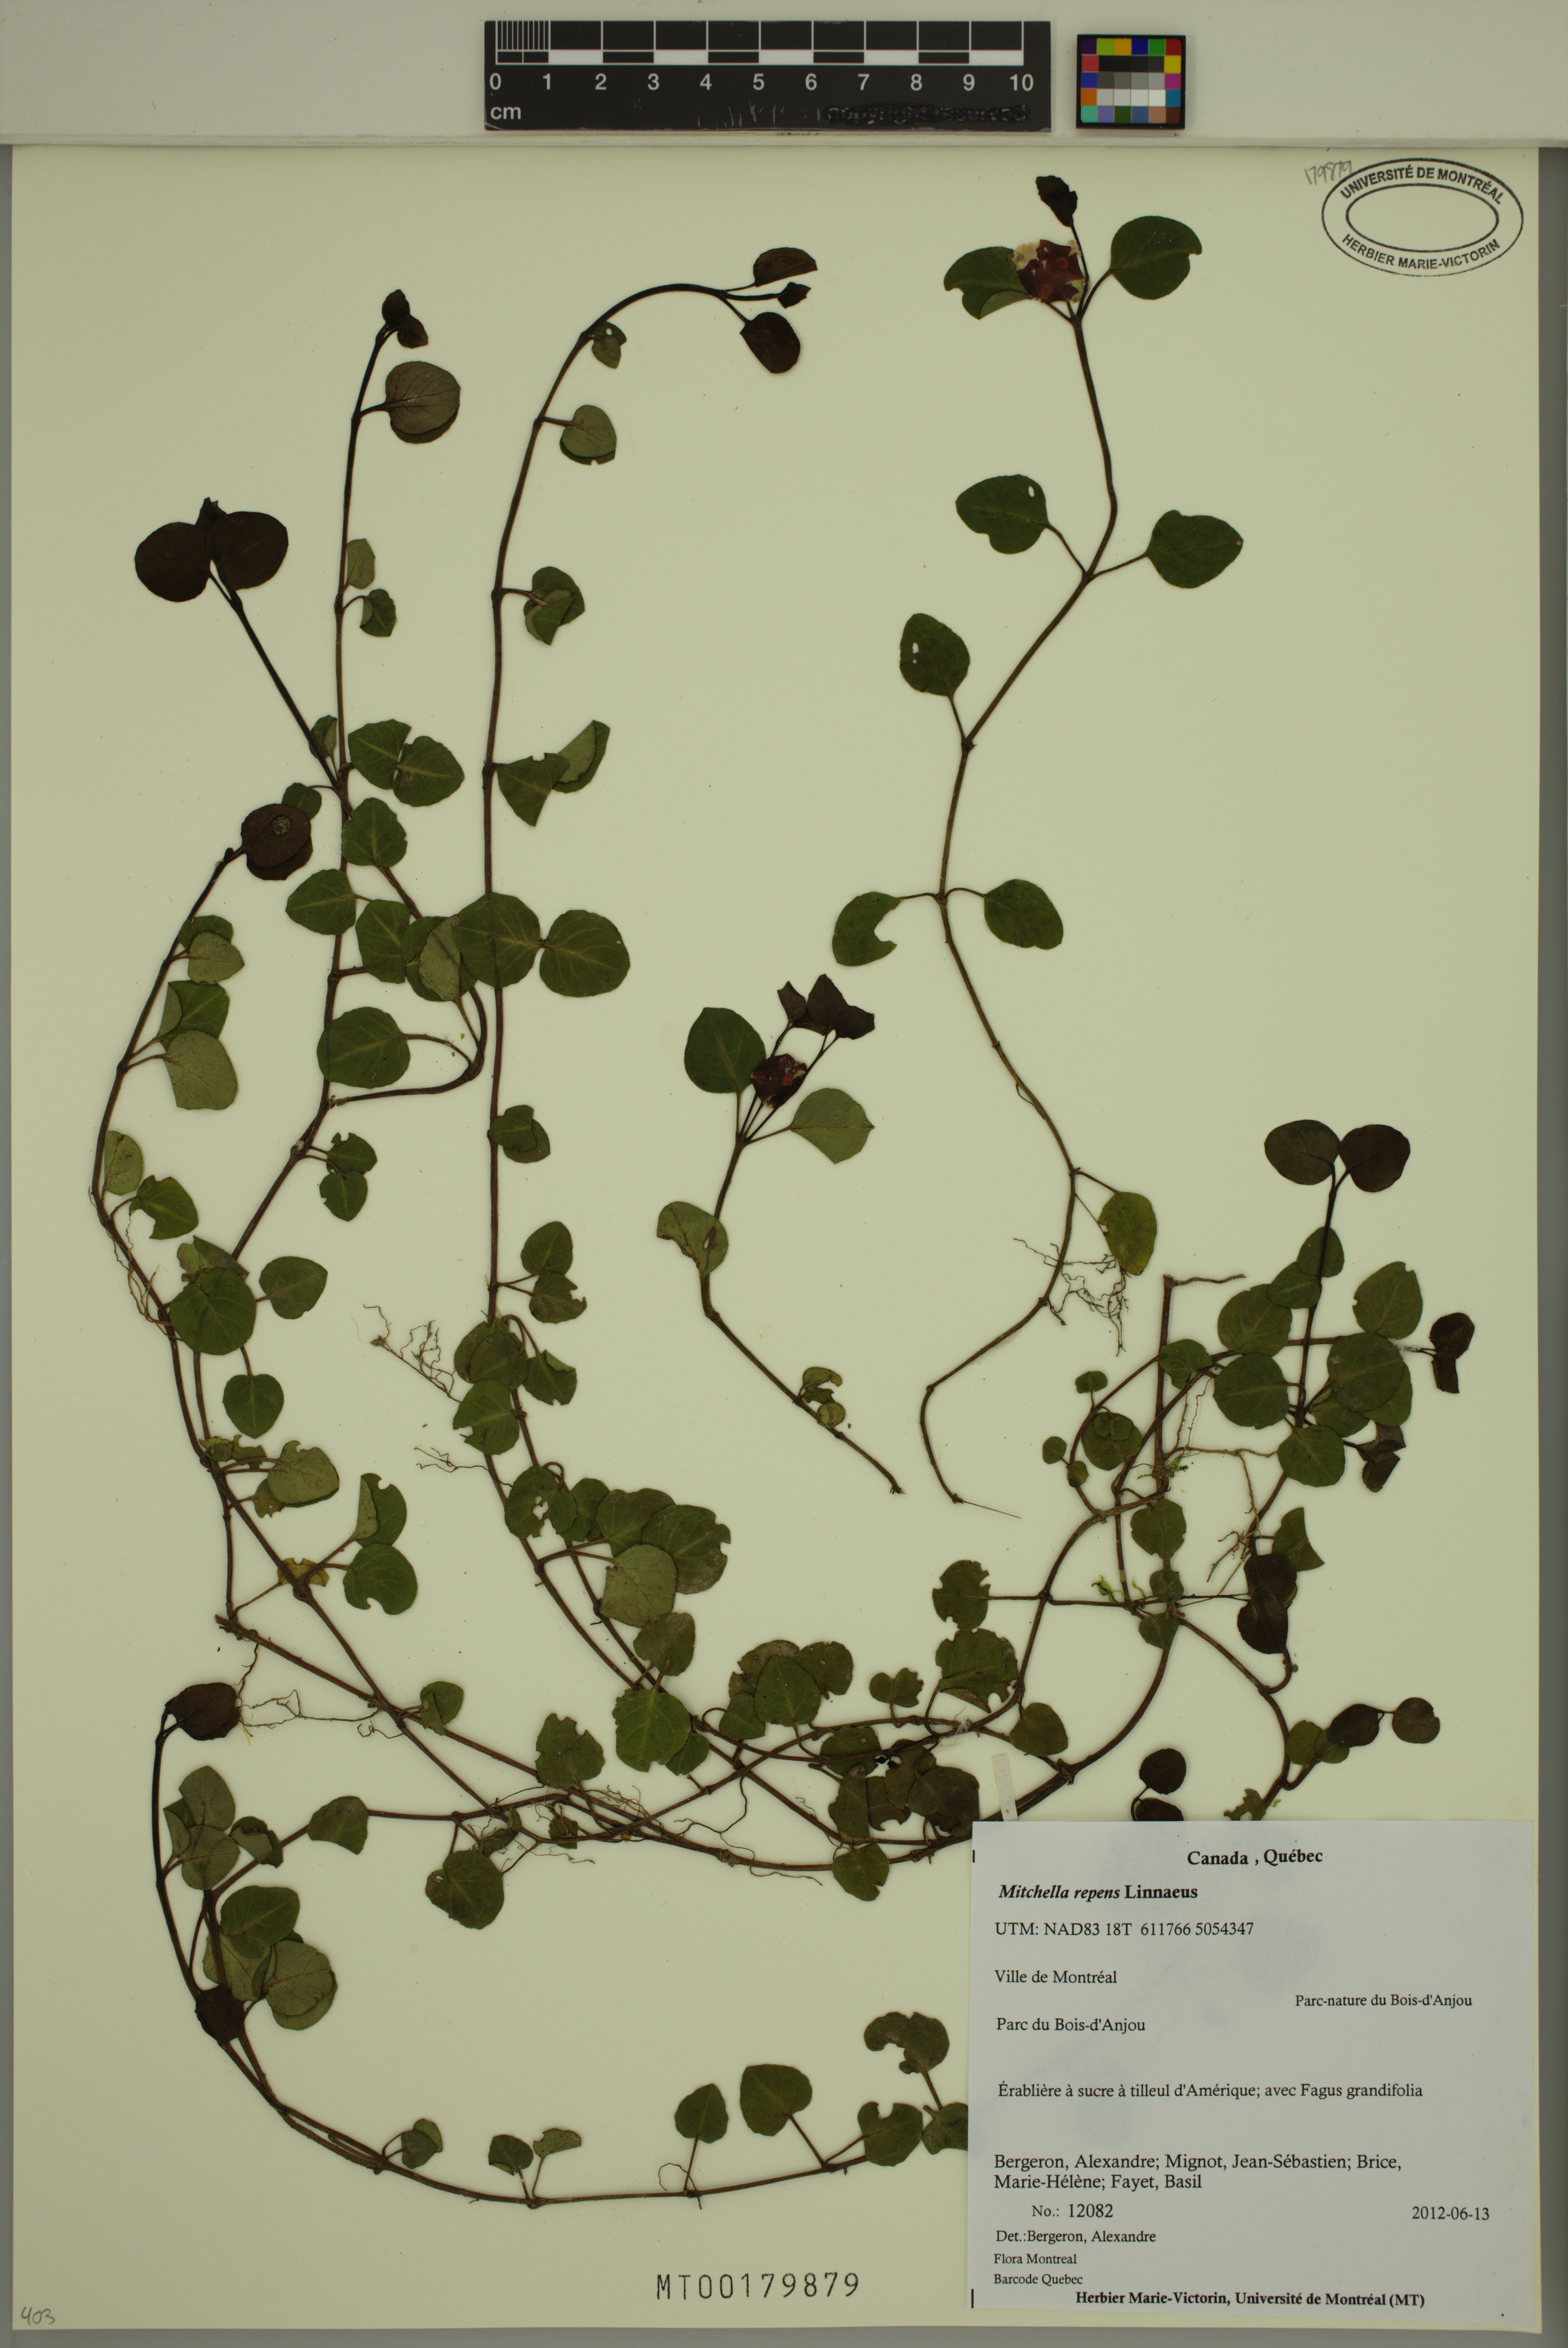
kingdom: Plantae
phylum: Tracheophyta
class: Magnoliopsida
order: Gentianales
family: Rubiaceae
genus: Mitchella
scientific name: Mitchella repens
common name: Partridge-berry
